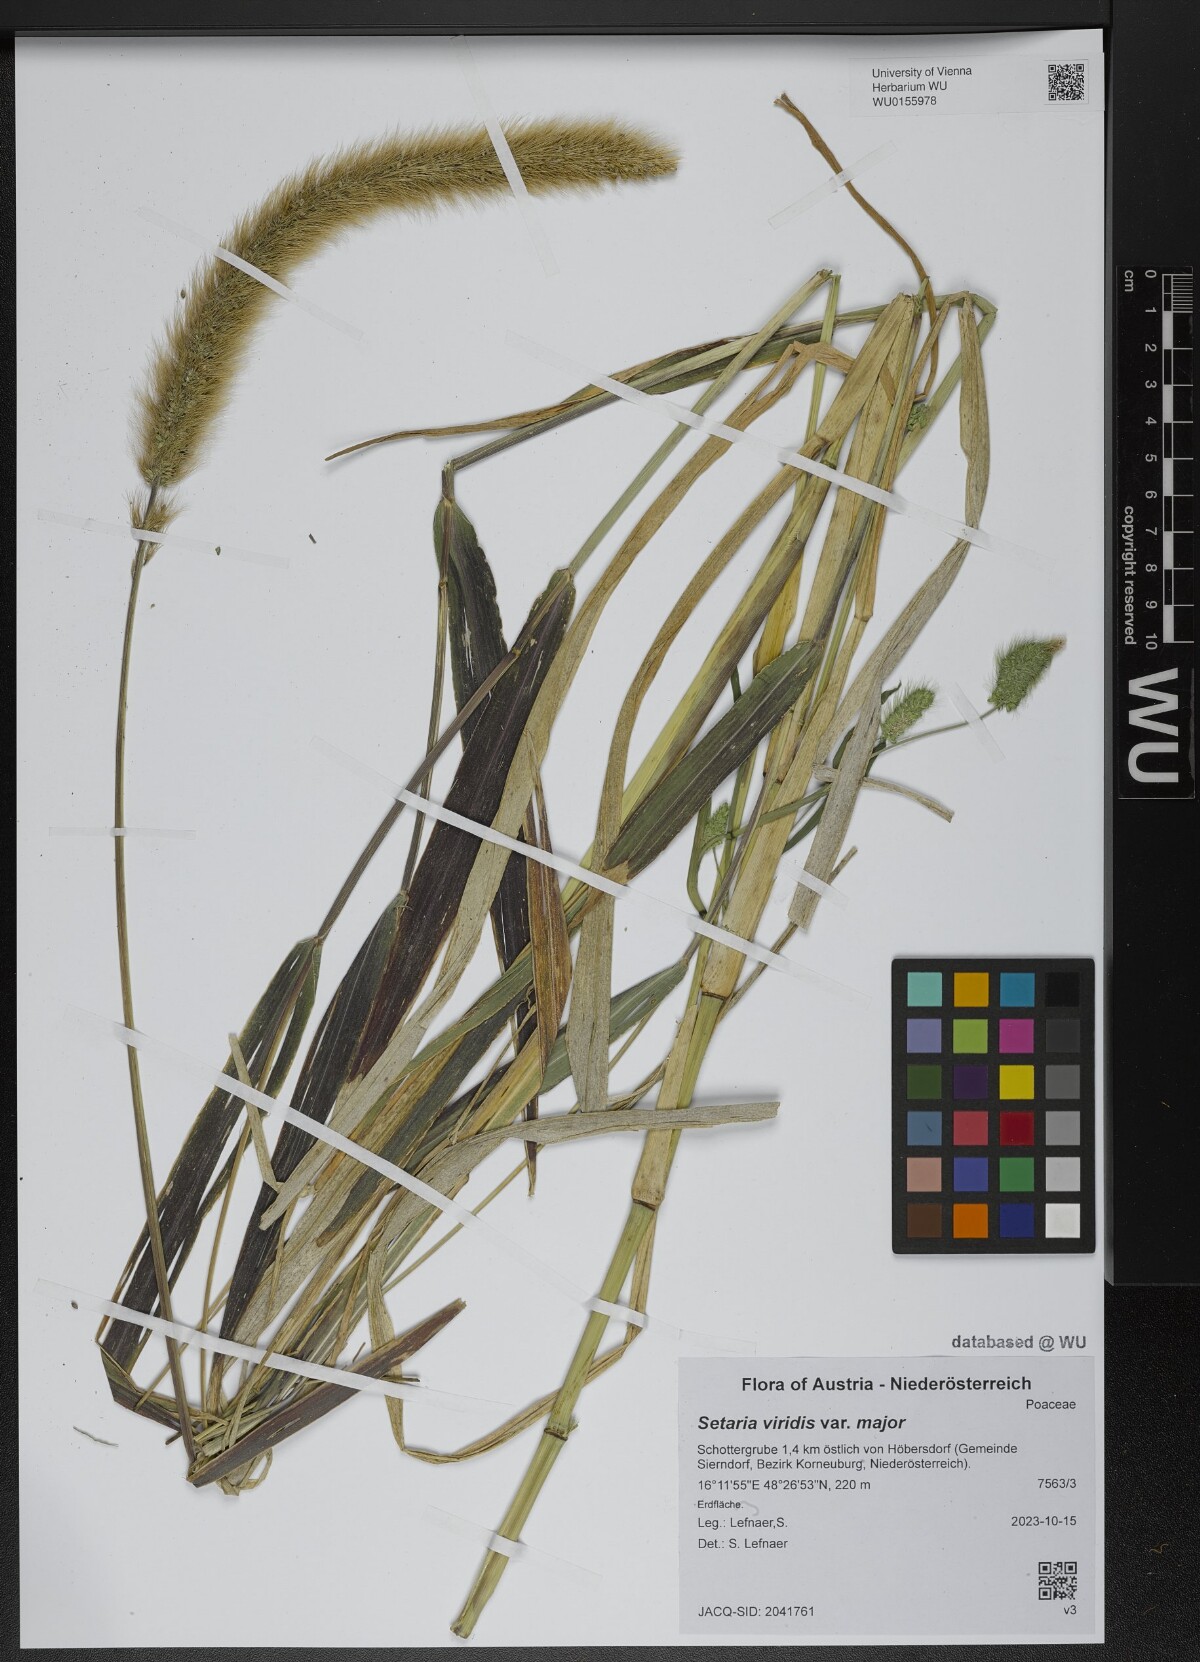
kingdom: Plantae
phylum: Tracheophyta
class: Liliopsida
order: Poales
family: Poaceae
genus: Setaria
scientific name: Setaria viridis
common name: Green bristlegrass
